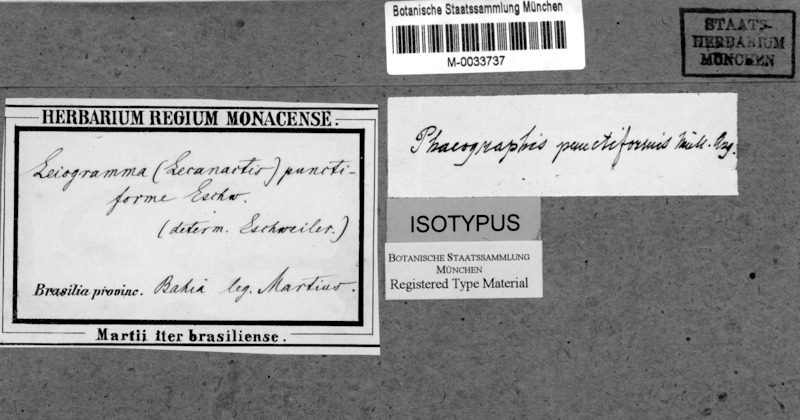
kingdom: Fungi
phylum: Ascomycota
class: Lecanoromycetes
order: Ostropales
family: Graphidaceae
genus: Phaeographis
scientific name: Phaeographis punctiformis
